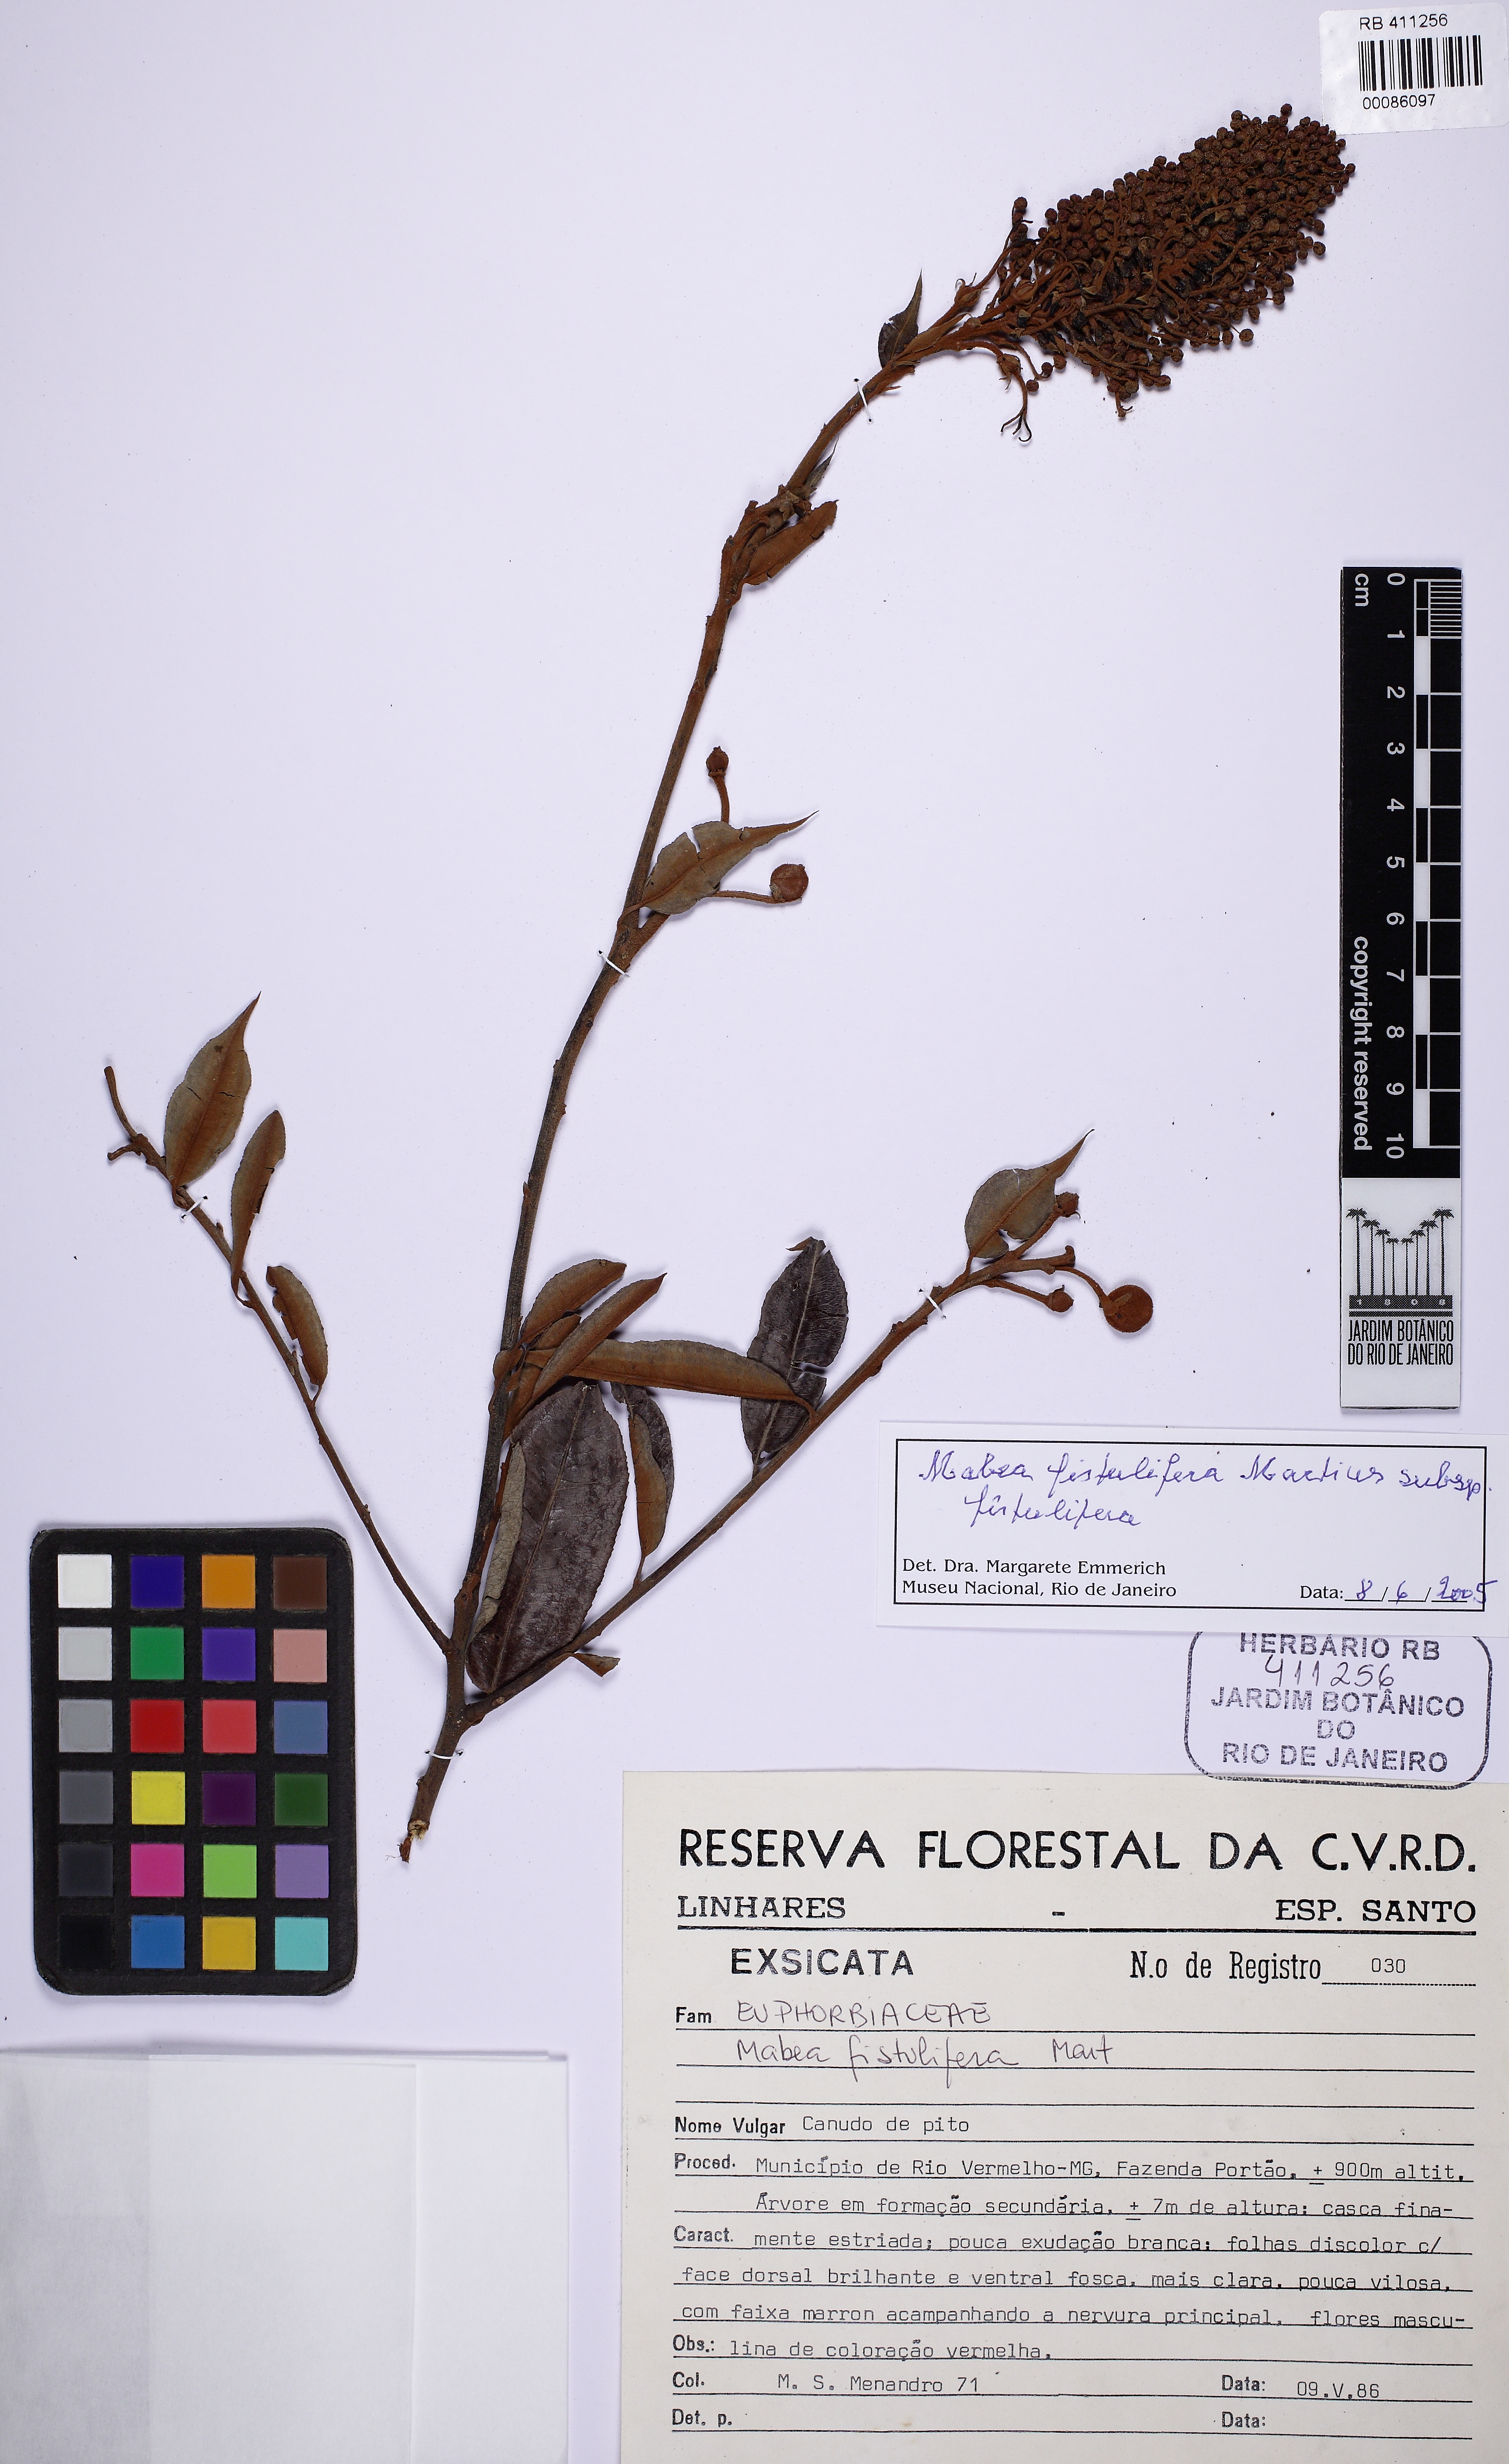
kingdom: Plantae
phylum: Tracheophyta
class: Magnoliopsida
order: Malpighiales
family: Euphorbiaceae
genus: Mabea
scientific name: Mabea fistulifera
